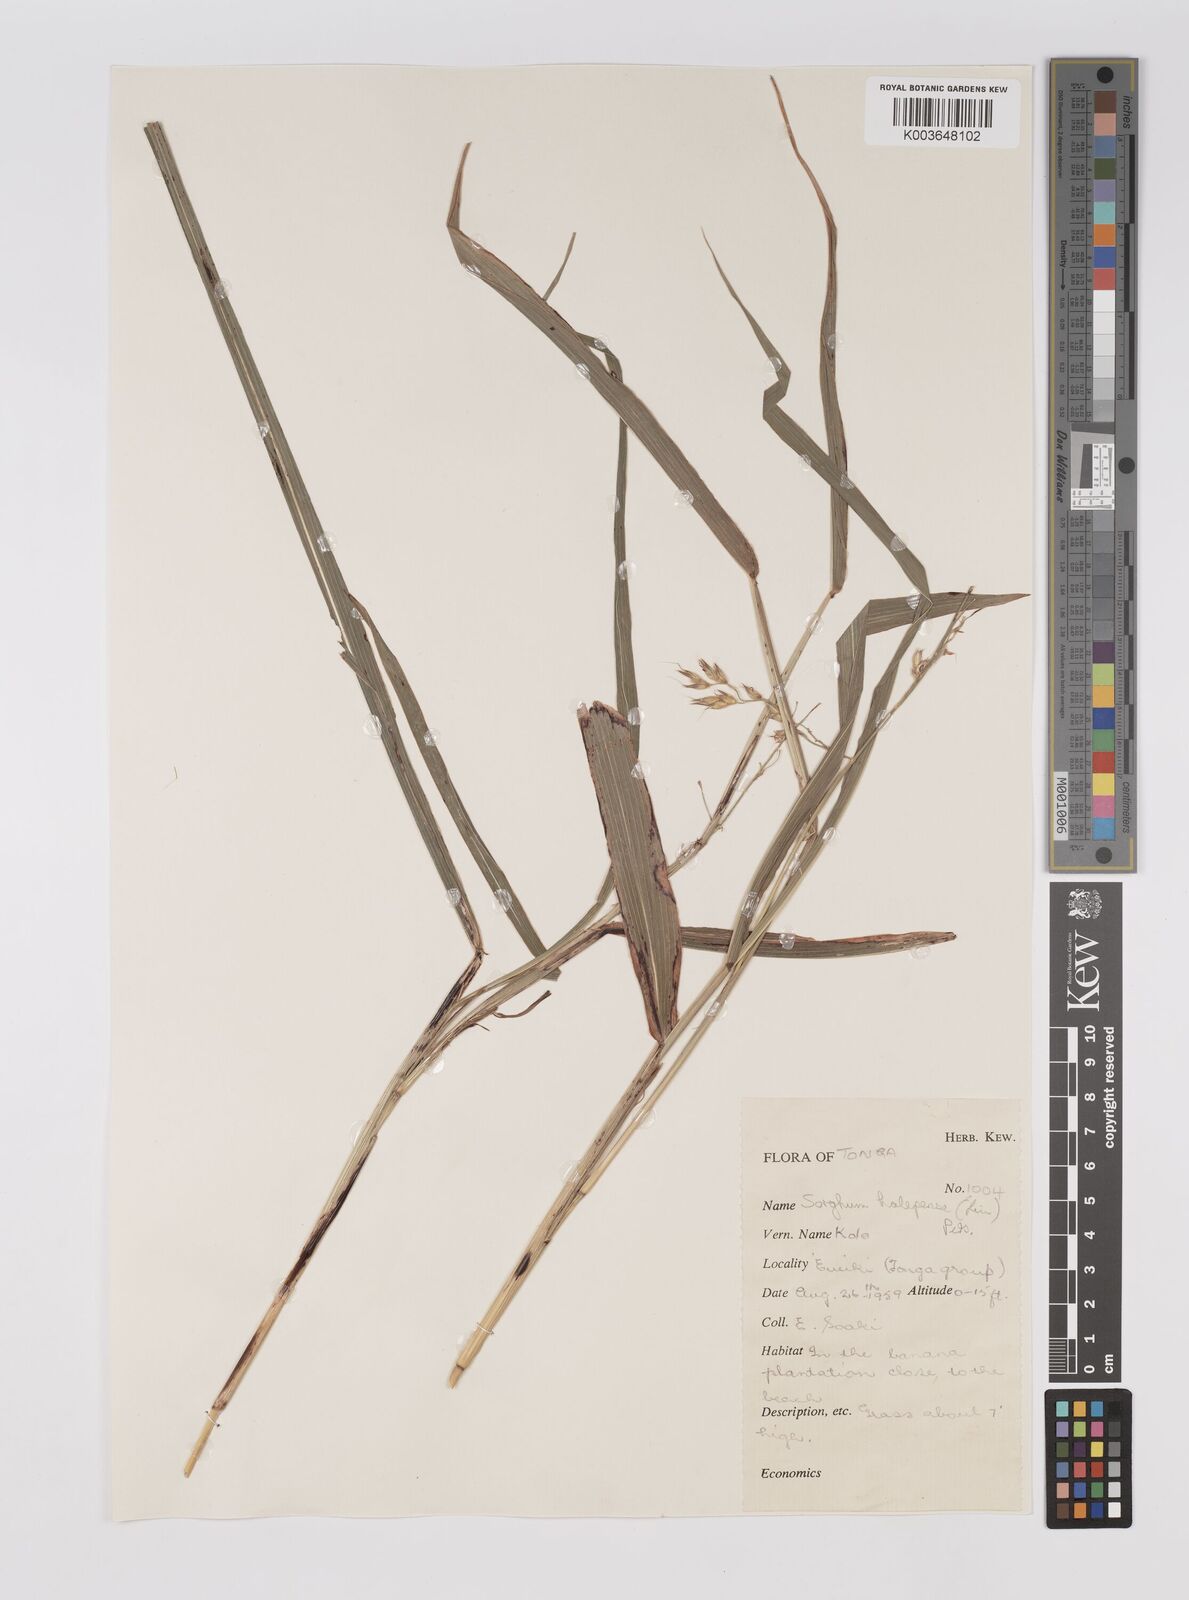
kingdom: Plantae
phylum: Tracheophyta
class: Liliopsida
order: Poales
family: Poaceae
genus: Sorghum
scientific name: Sorghum halepense
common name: Johnson-grass
